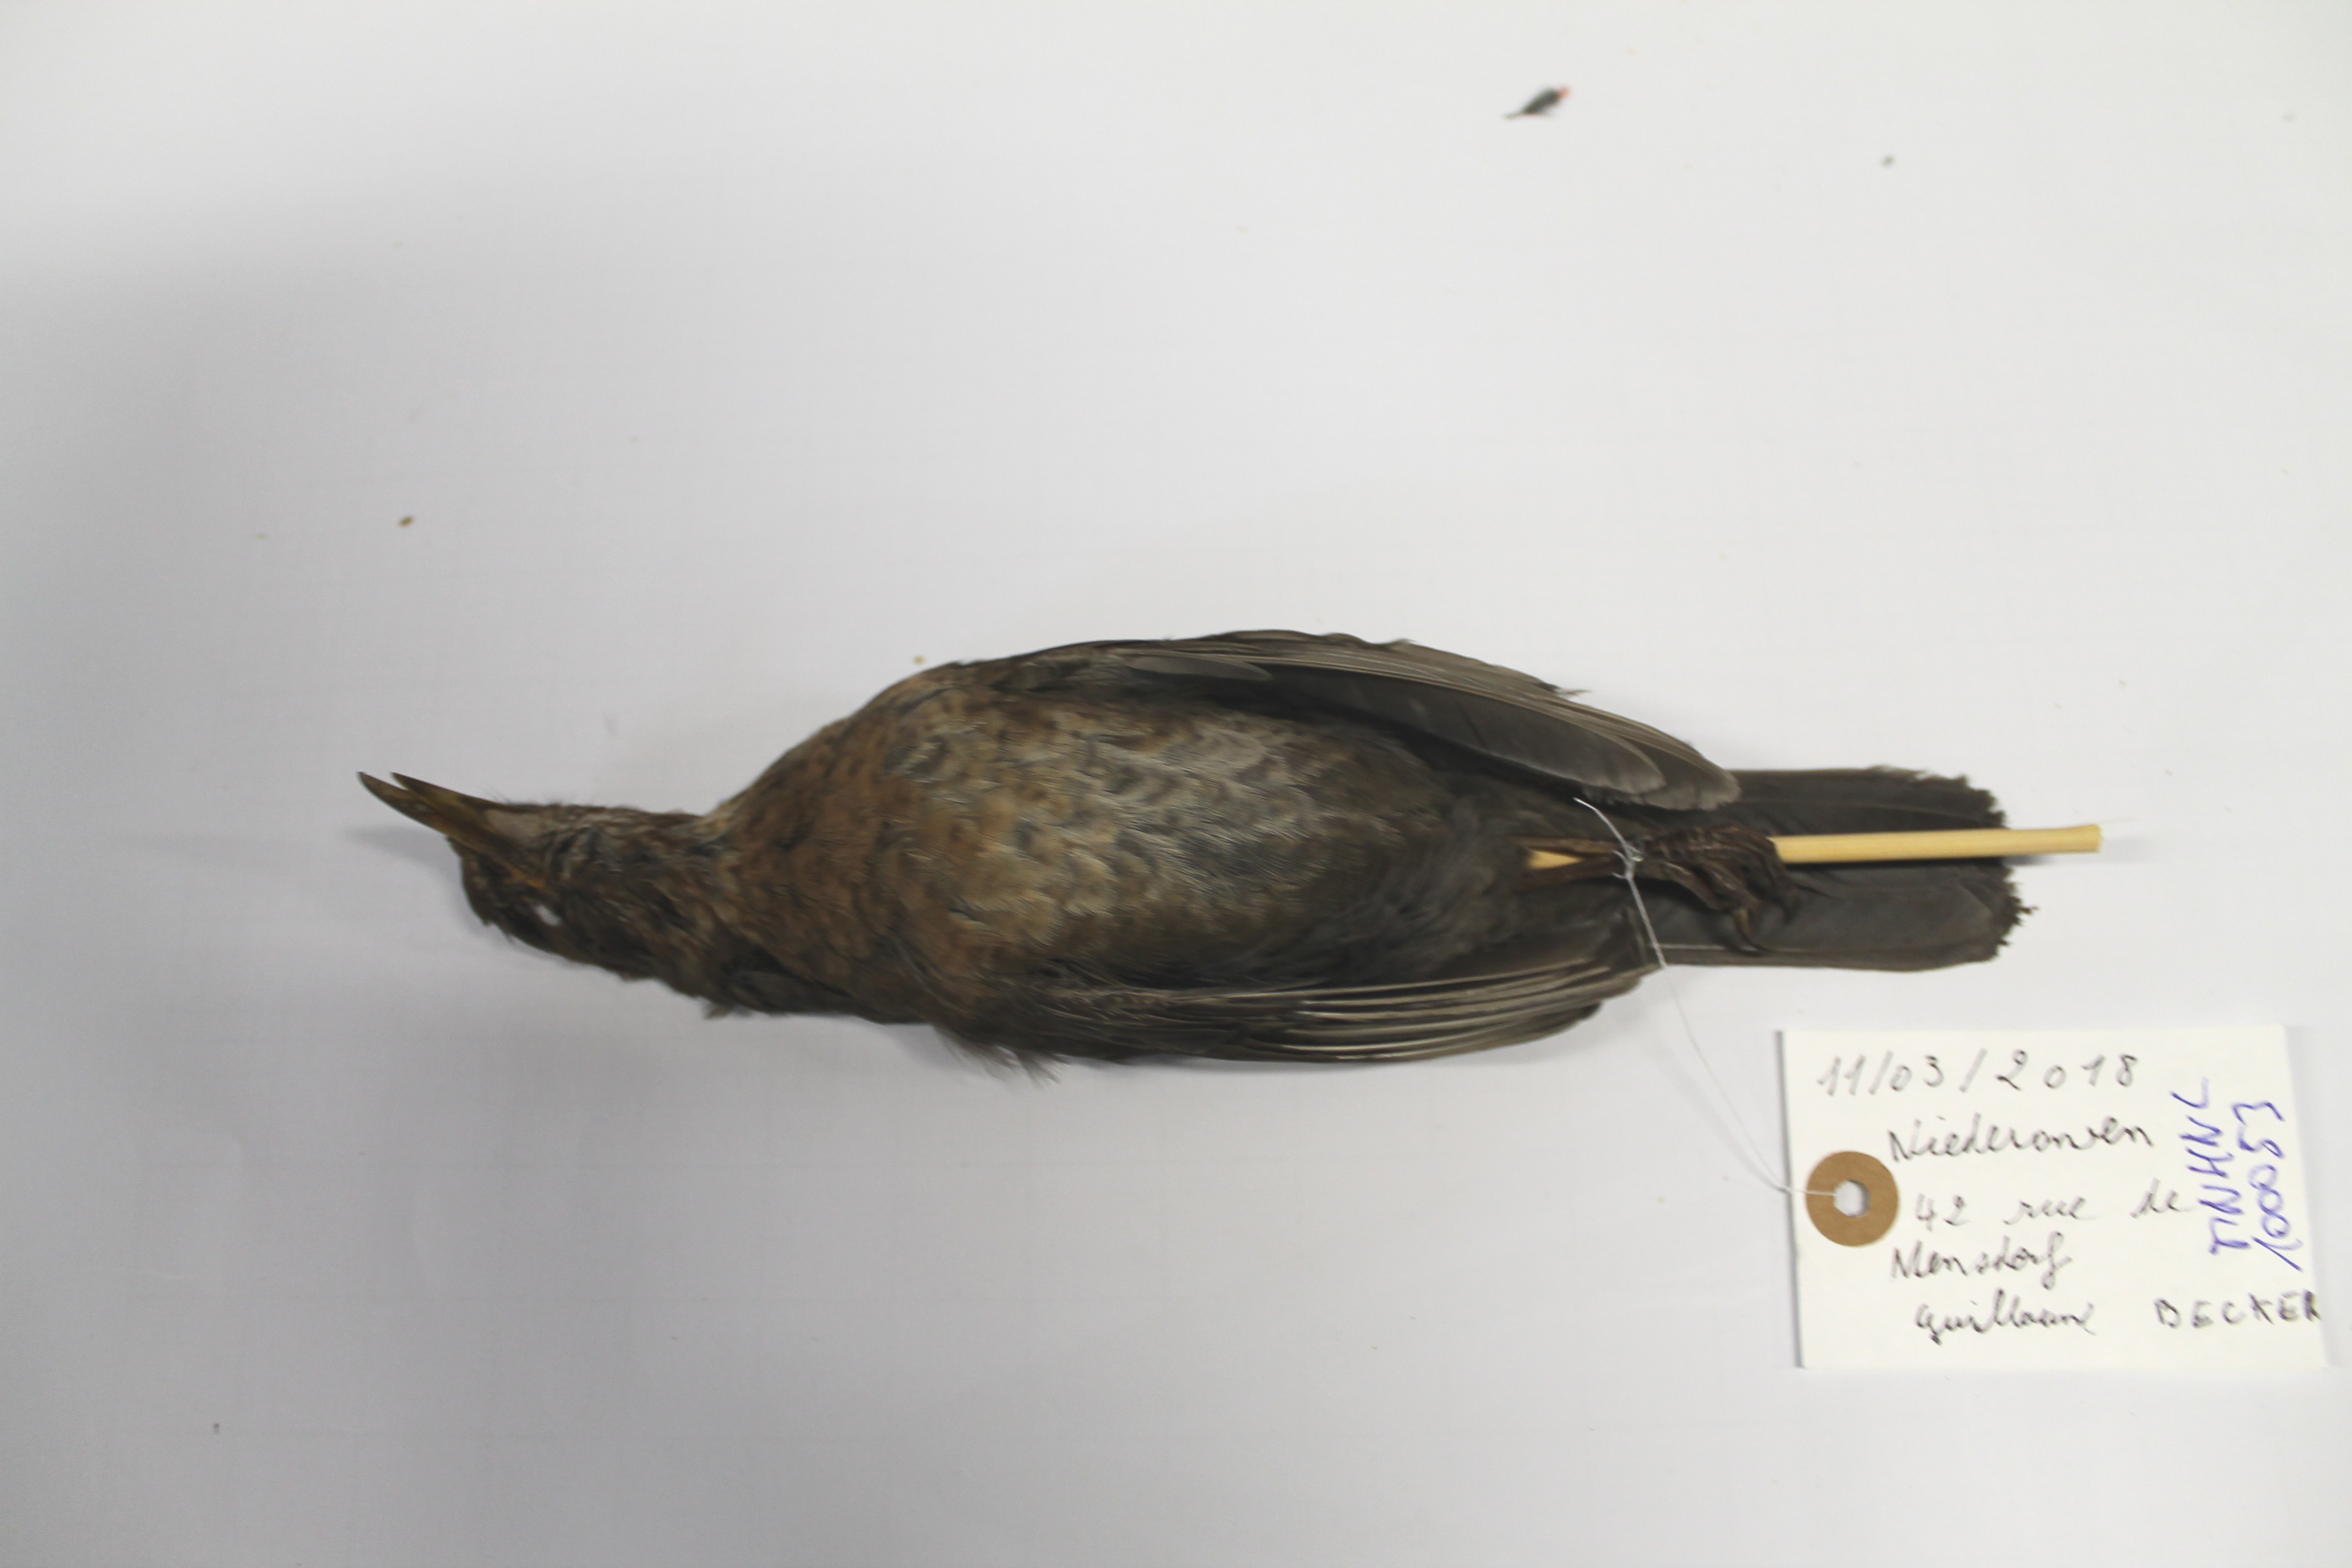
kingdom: Animalia
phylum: Chordata
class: Aves
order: Passeriformes
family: Turdidae
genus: Turdus
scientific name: Turdus merula
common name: Common blackbird
